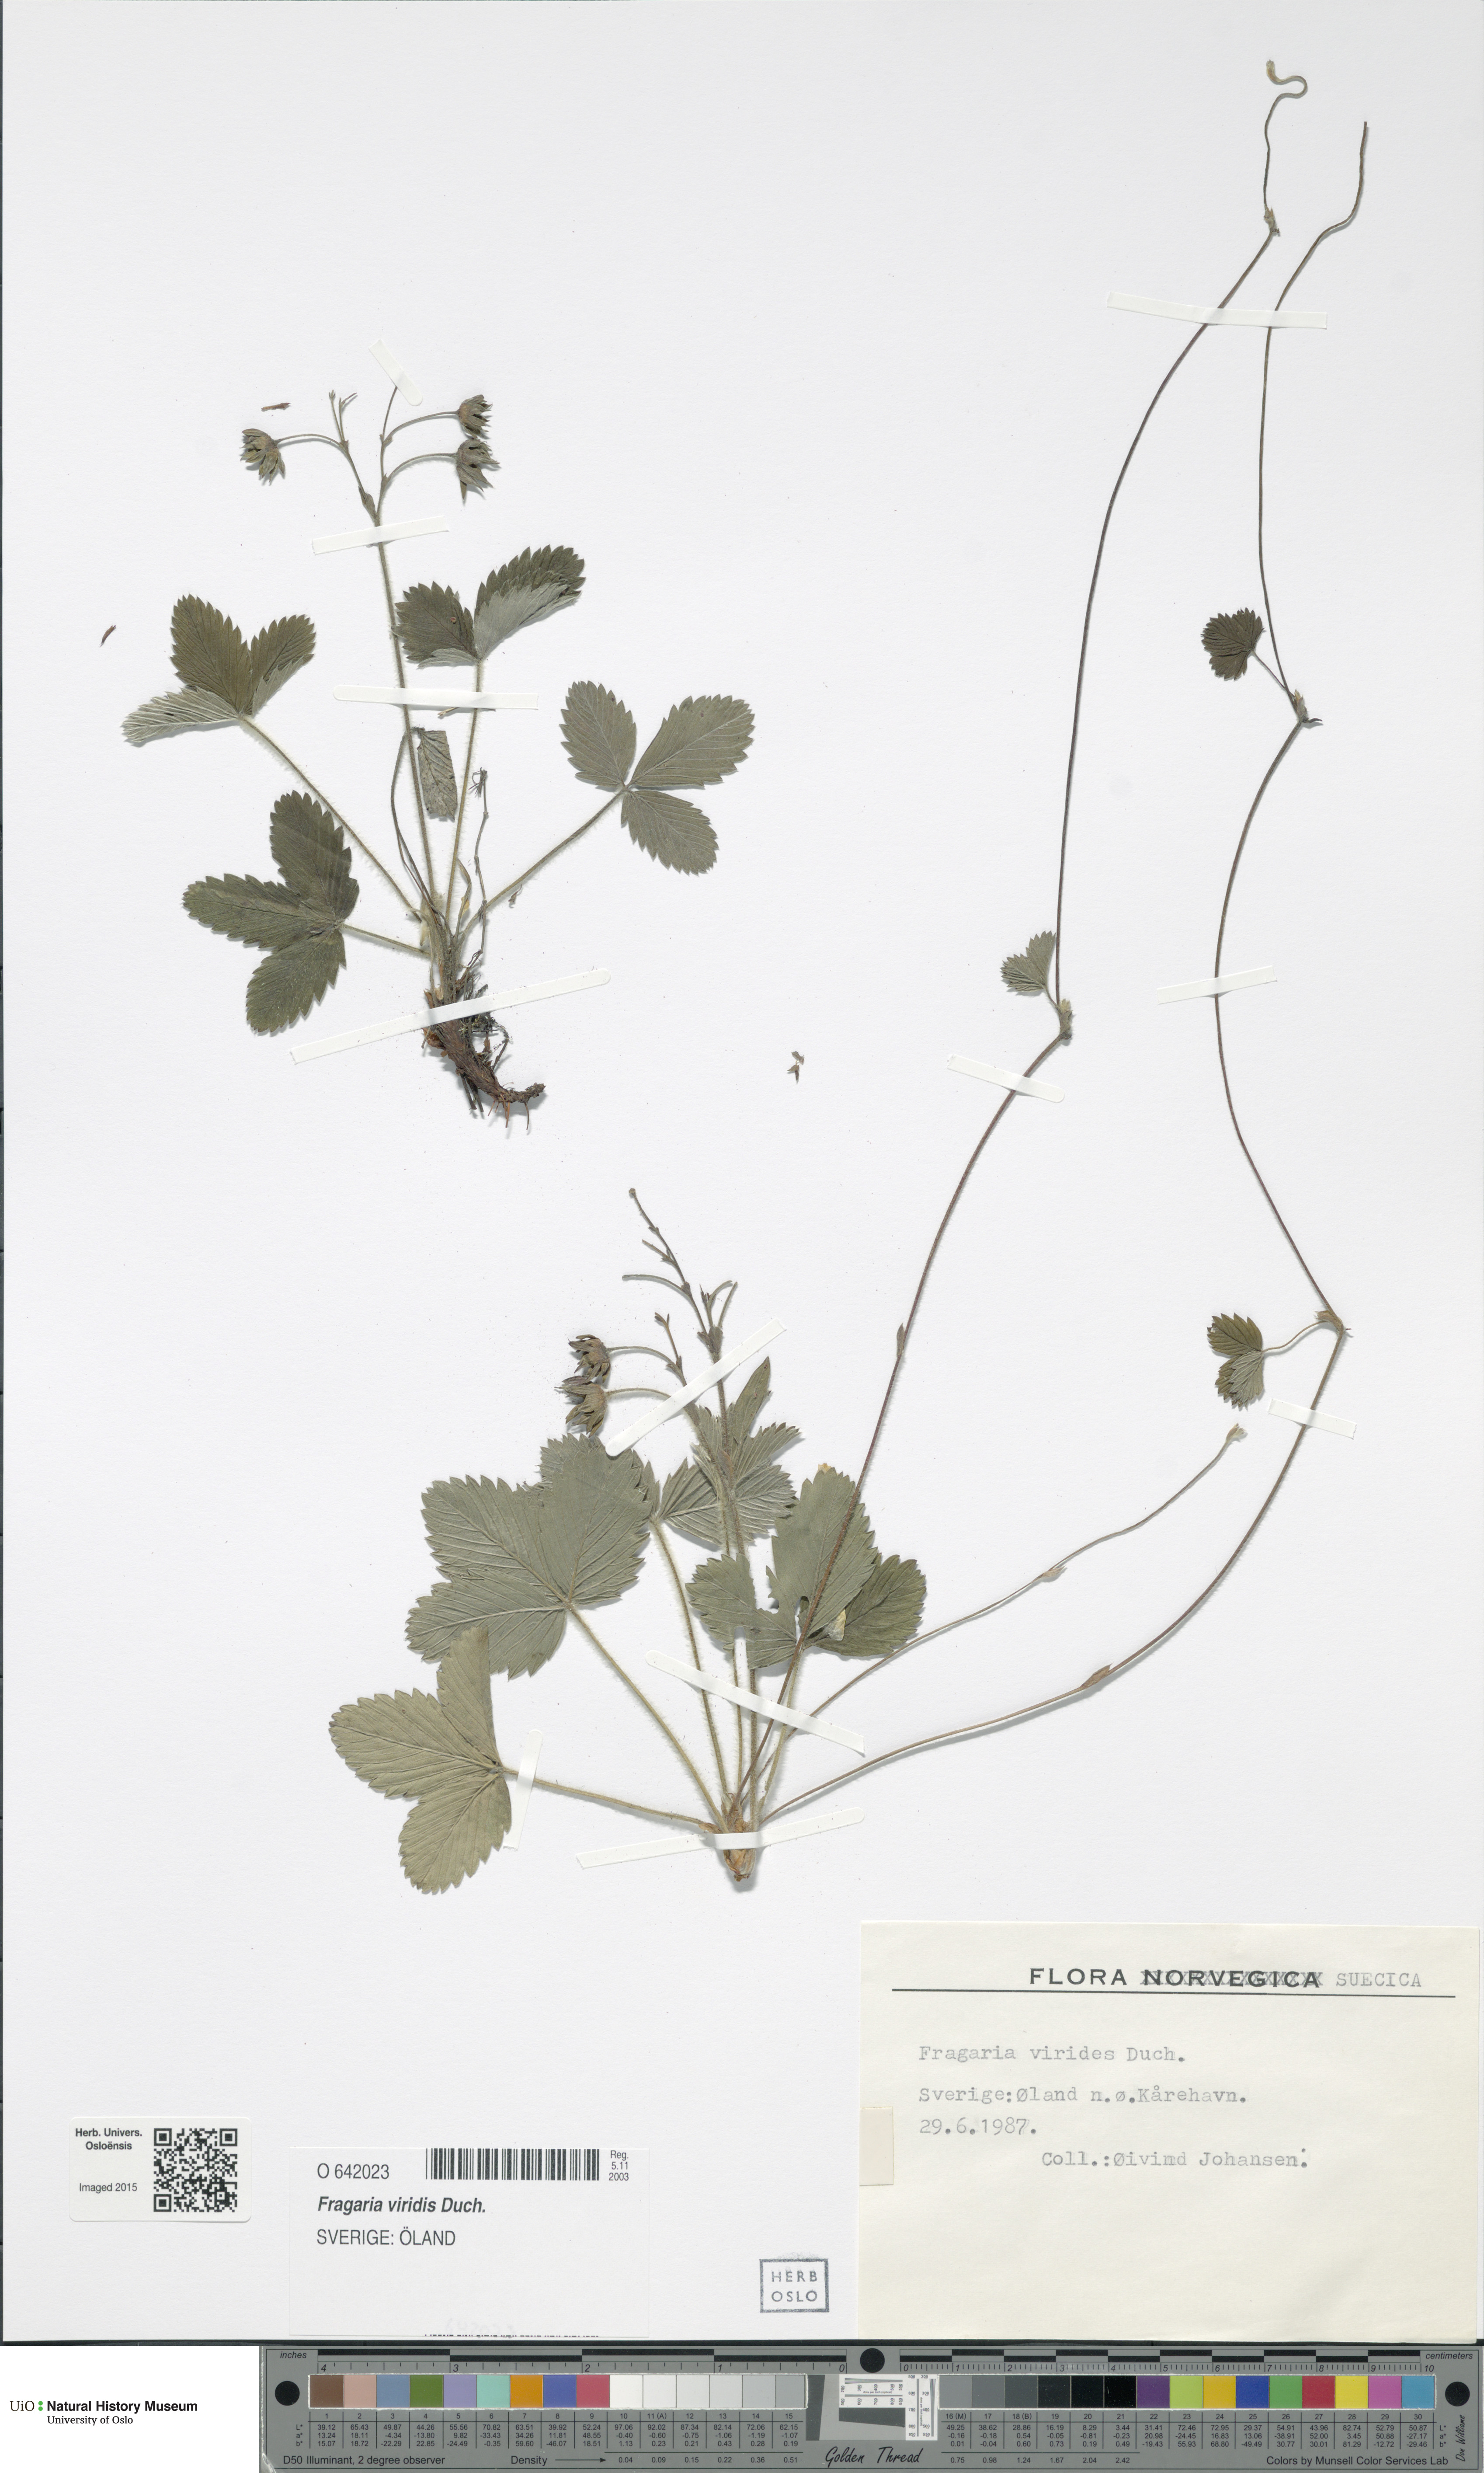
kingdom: Plantae
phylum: Tracheophyta
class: Magnoliopsida
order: Rosales
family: Rosaceae
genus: Fragaria
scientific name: Fragaria viridis
